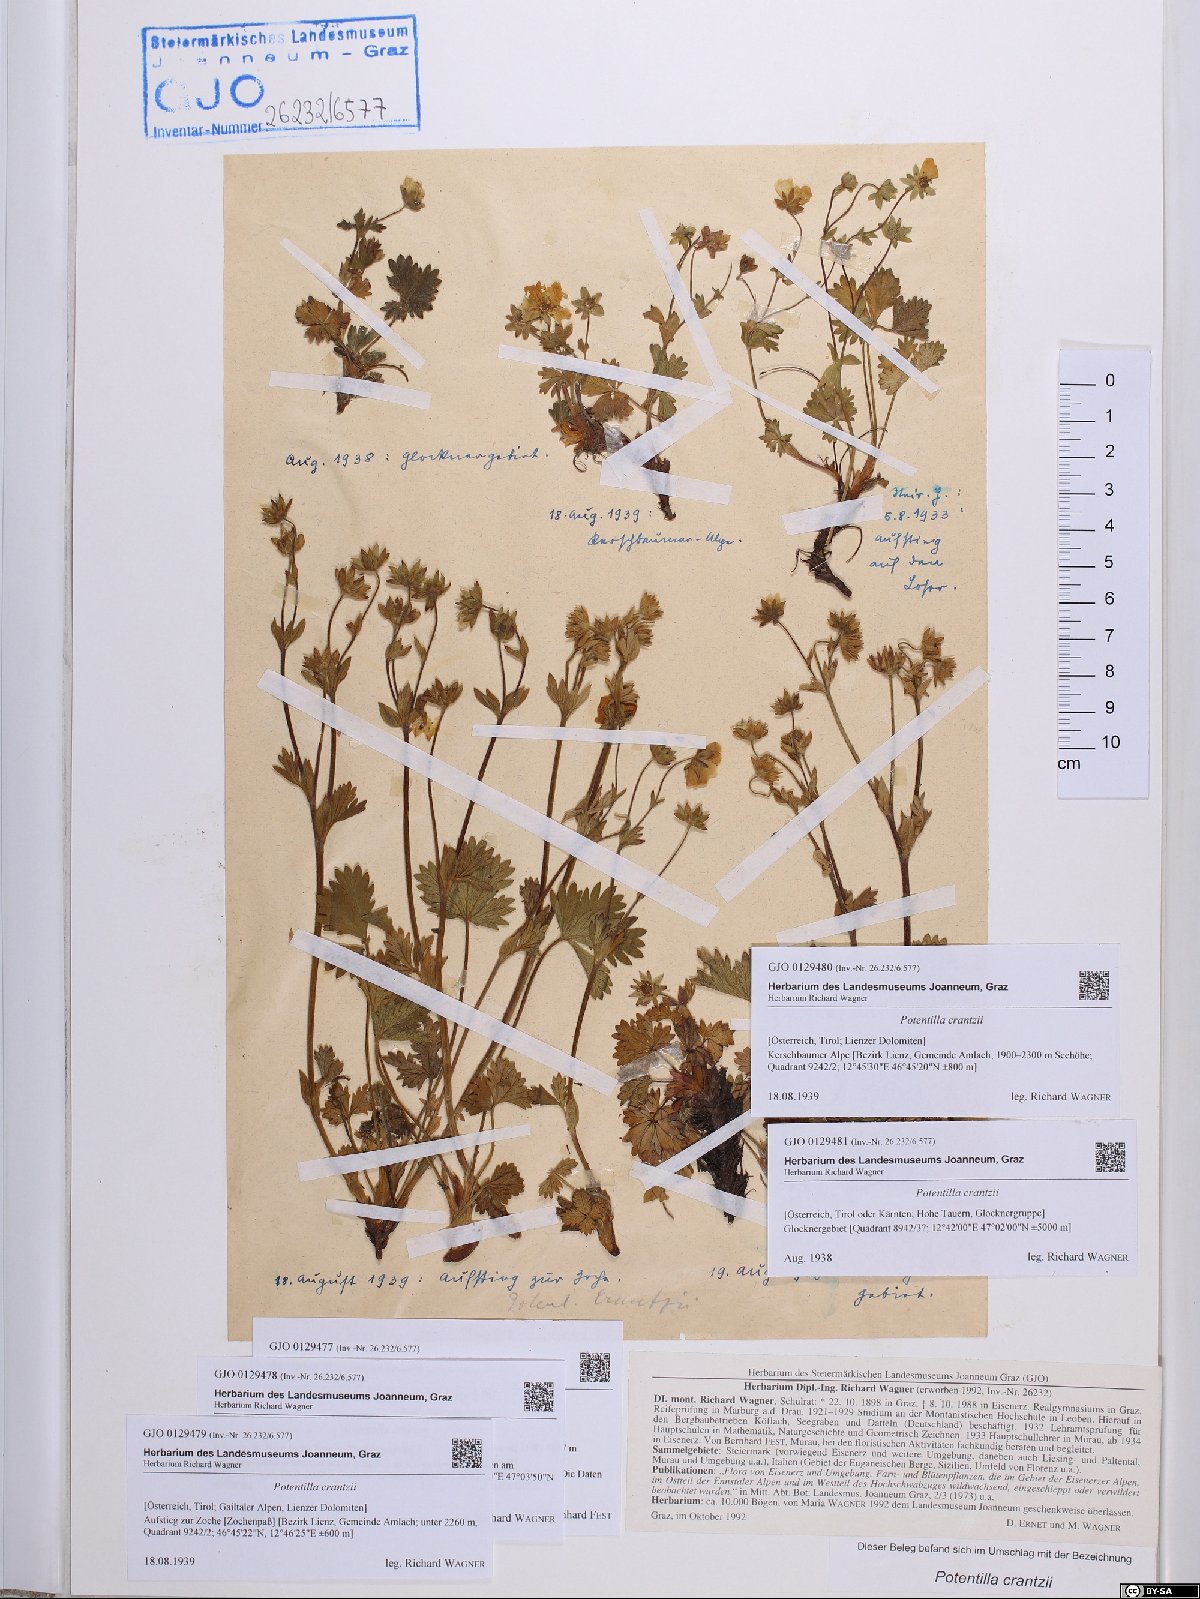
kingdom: Plantae
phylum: Tracheophyta
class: Magnoliopsida
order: Rosales
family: Rosaceae
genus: Potentilla
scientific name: Potentilla crantzii
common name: Alpine cinquefoil
